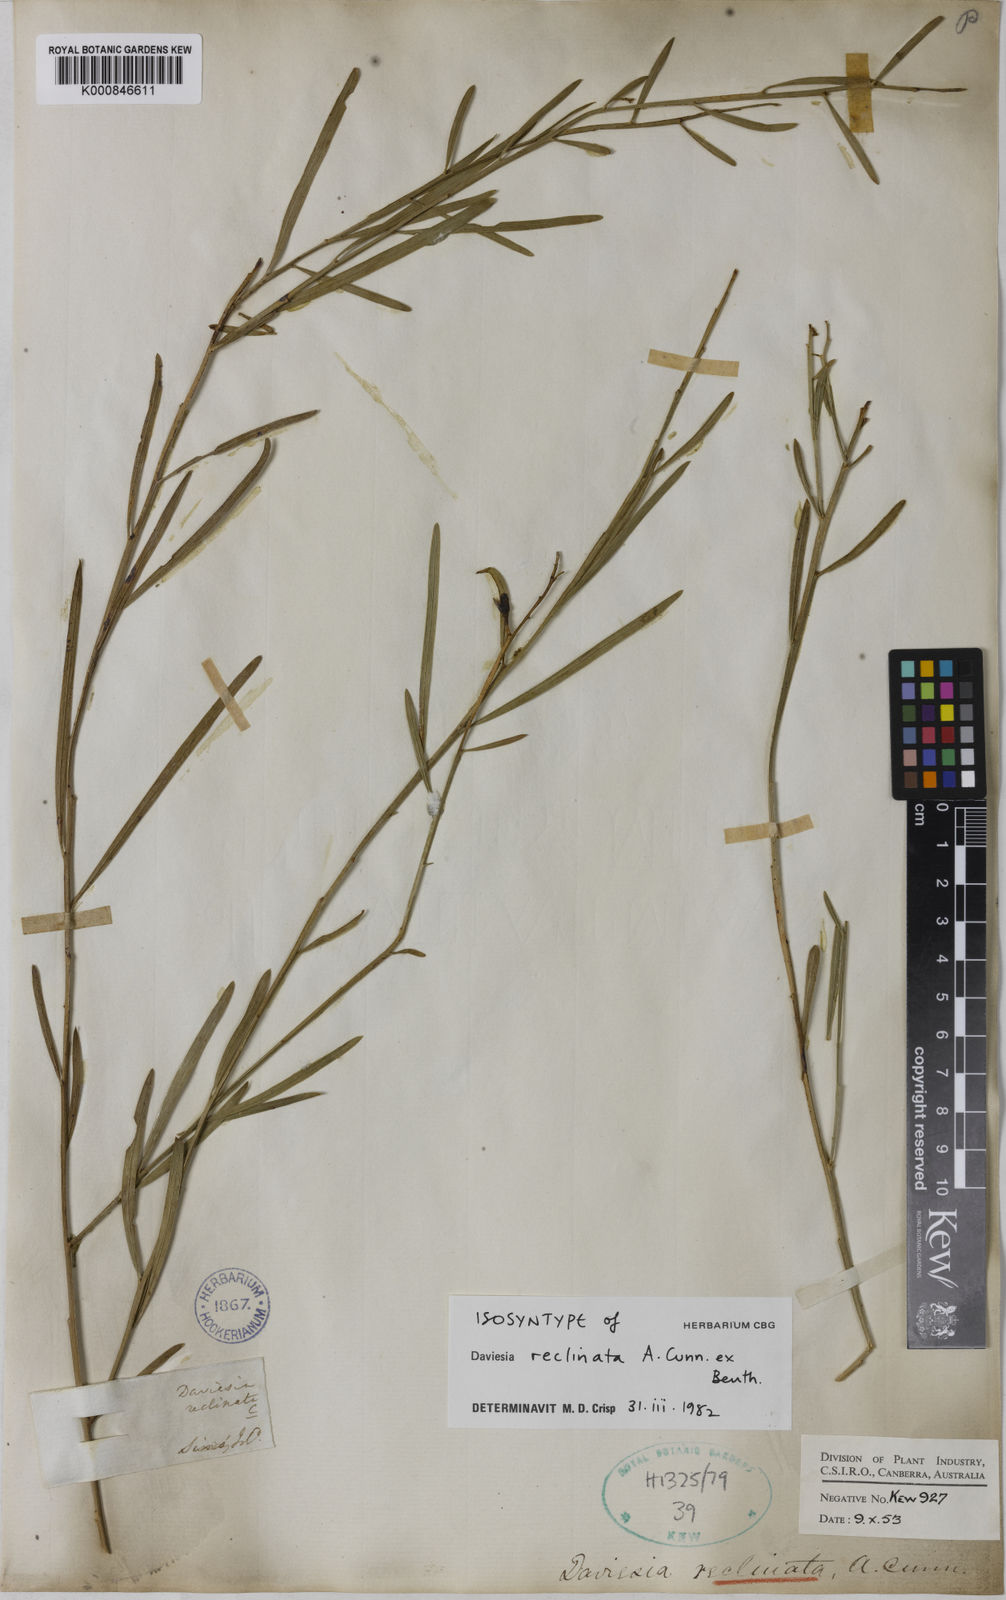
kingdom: Plantae
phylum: Tracheophyta
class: Magnoliopsida
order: Fabales
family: Fabaceae
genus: Daviesia
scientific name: Daviesia reclinata
